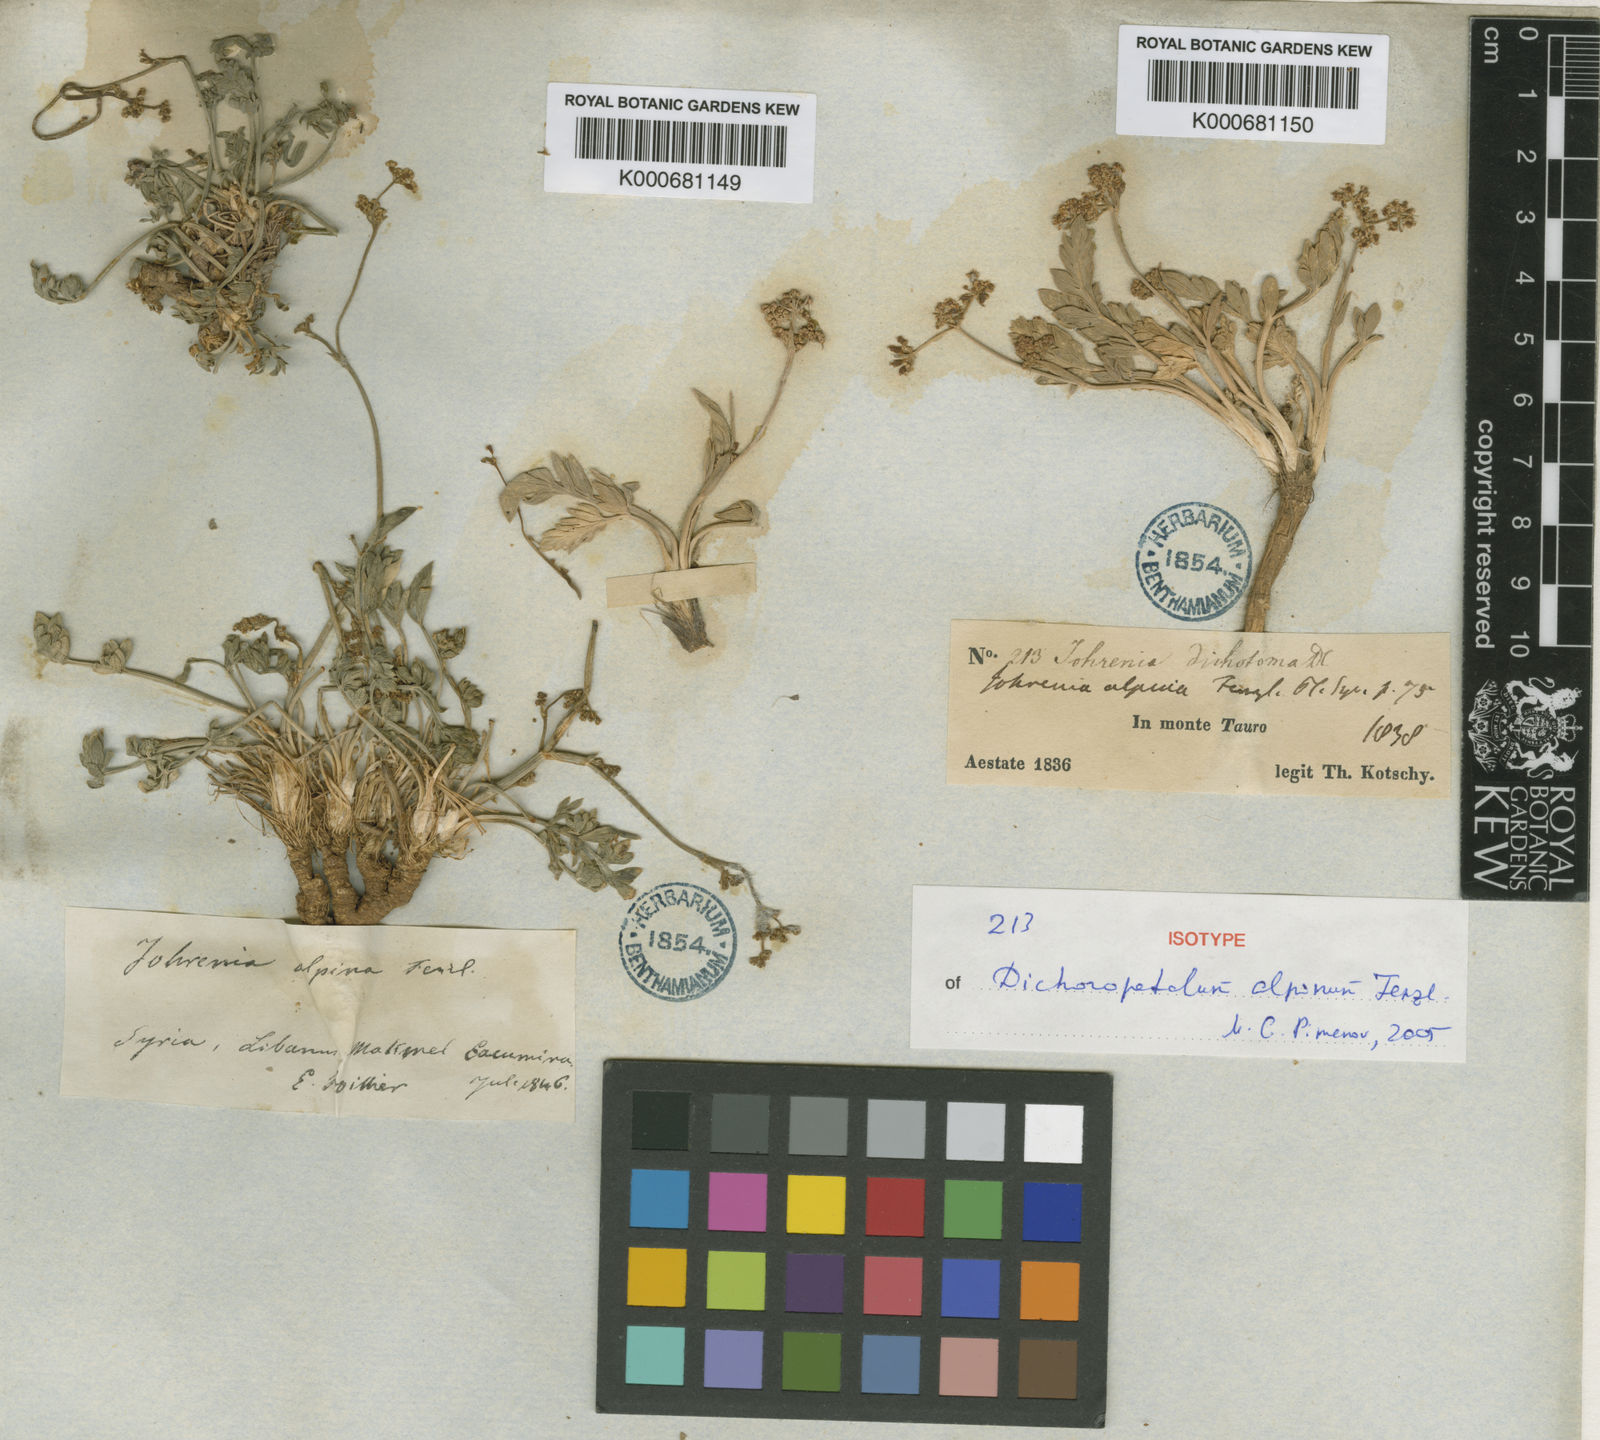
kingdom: Plantae
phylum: Tracheophyta
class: Magnoliopsida
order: Apiales
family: Apiaceae
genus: Dichoropetalum
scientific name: Dichoropetalum alpinum
